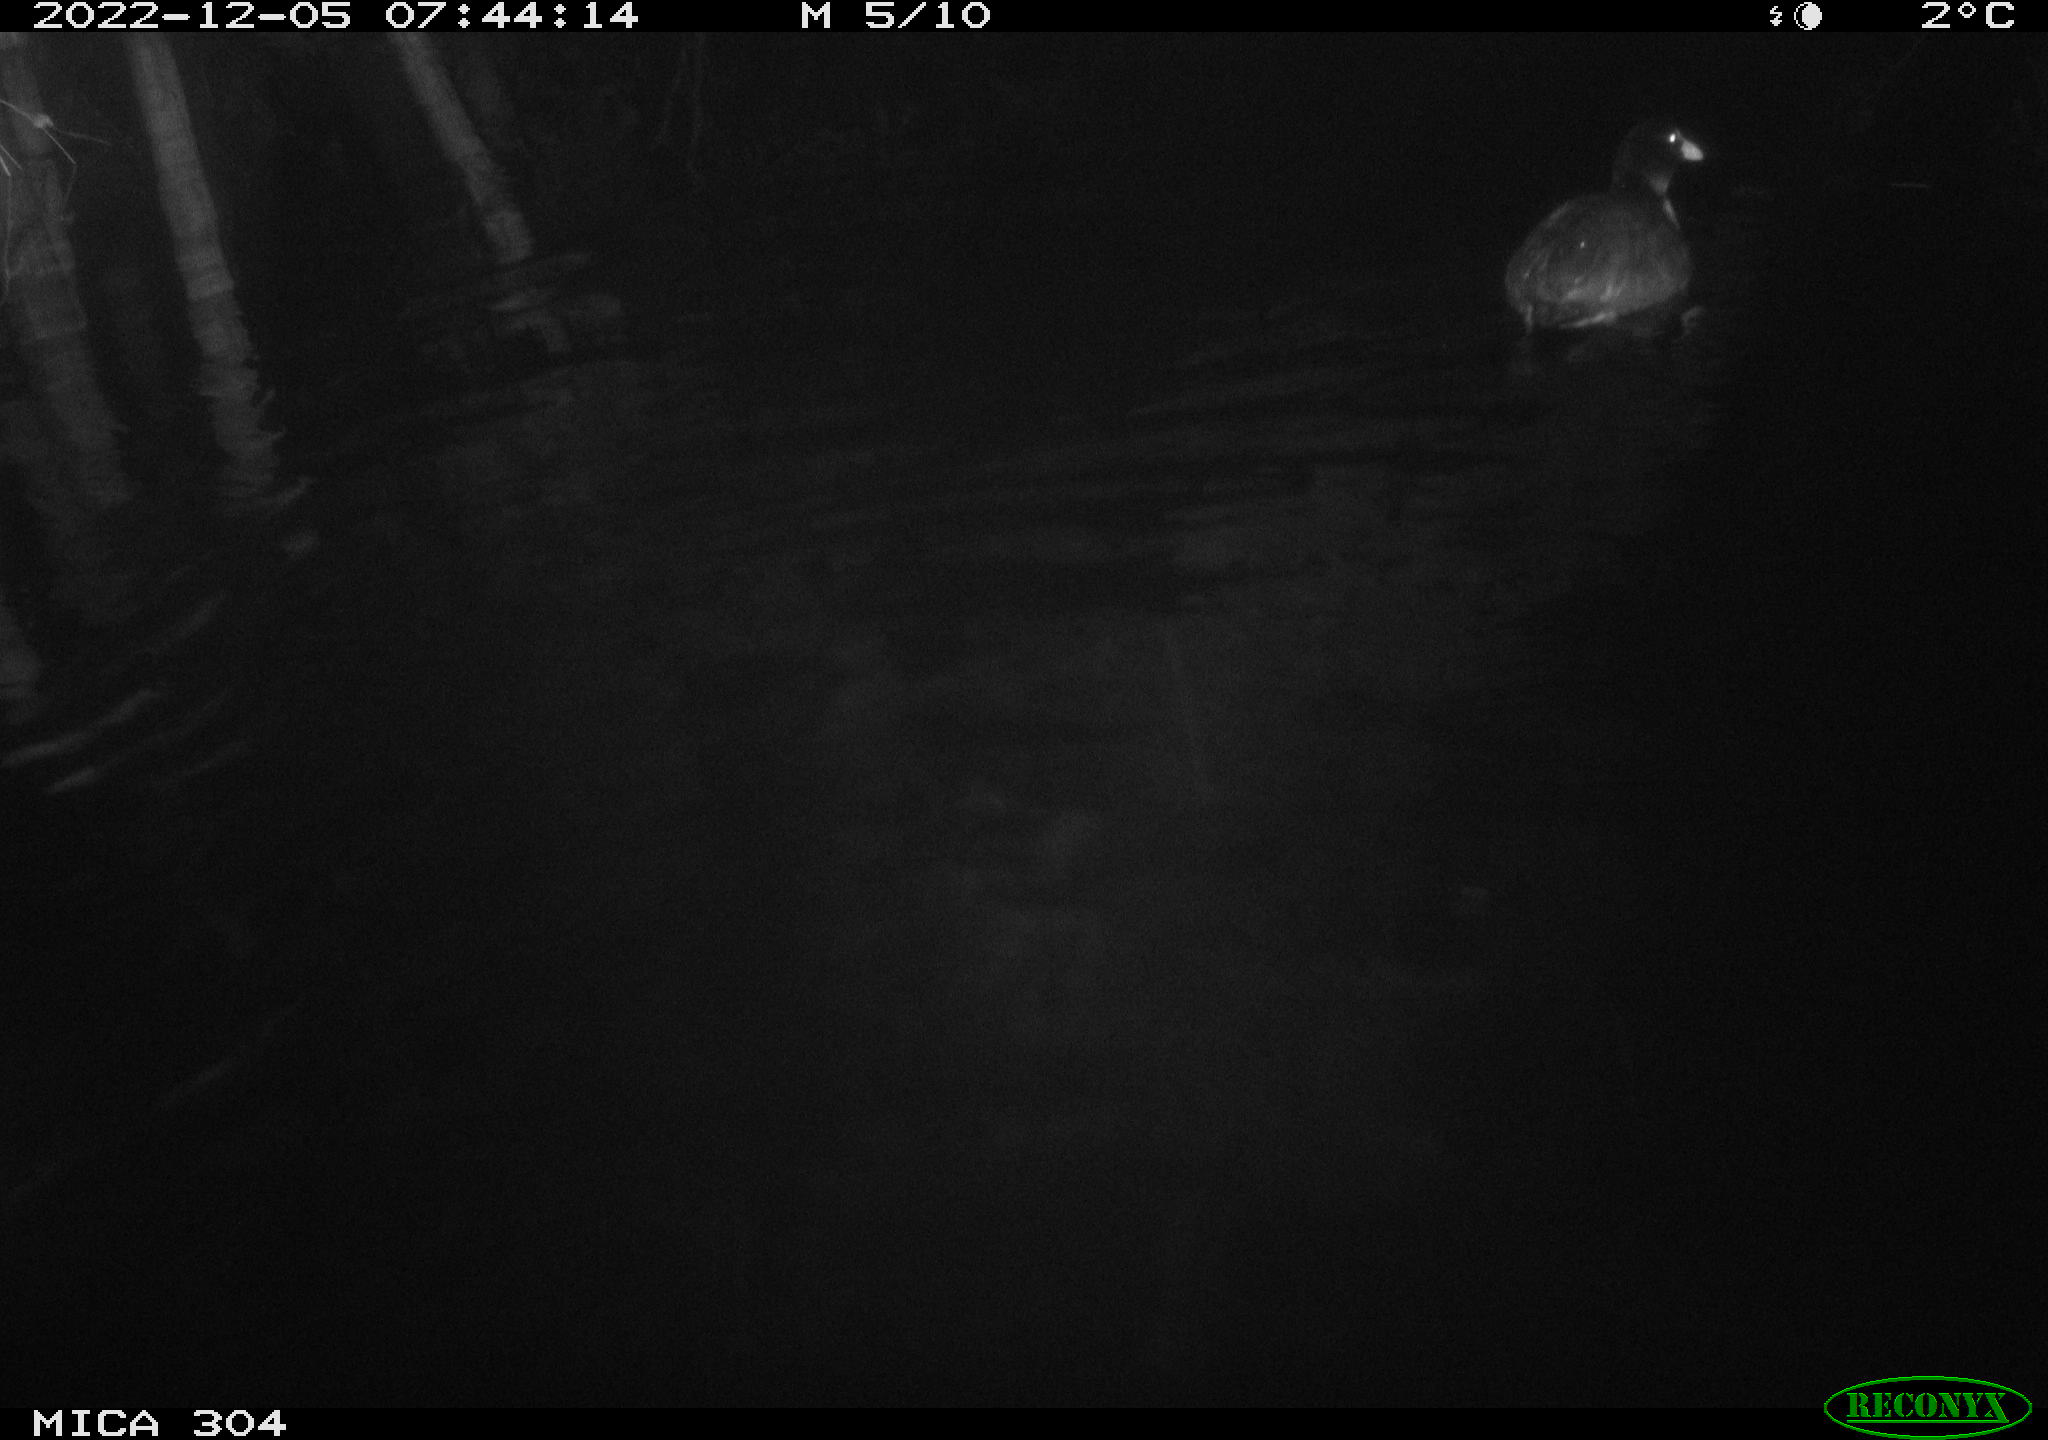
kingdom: Animalia
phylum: Chordata
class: Aves
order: Gruiformes
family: Rallidae
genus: Fulica
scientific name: Fulica atra
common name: Eurasian coot
